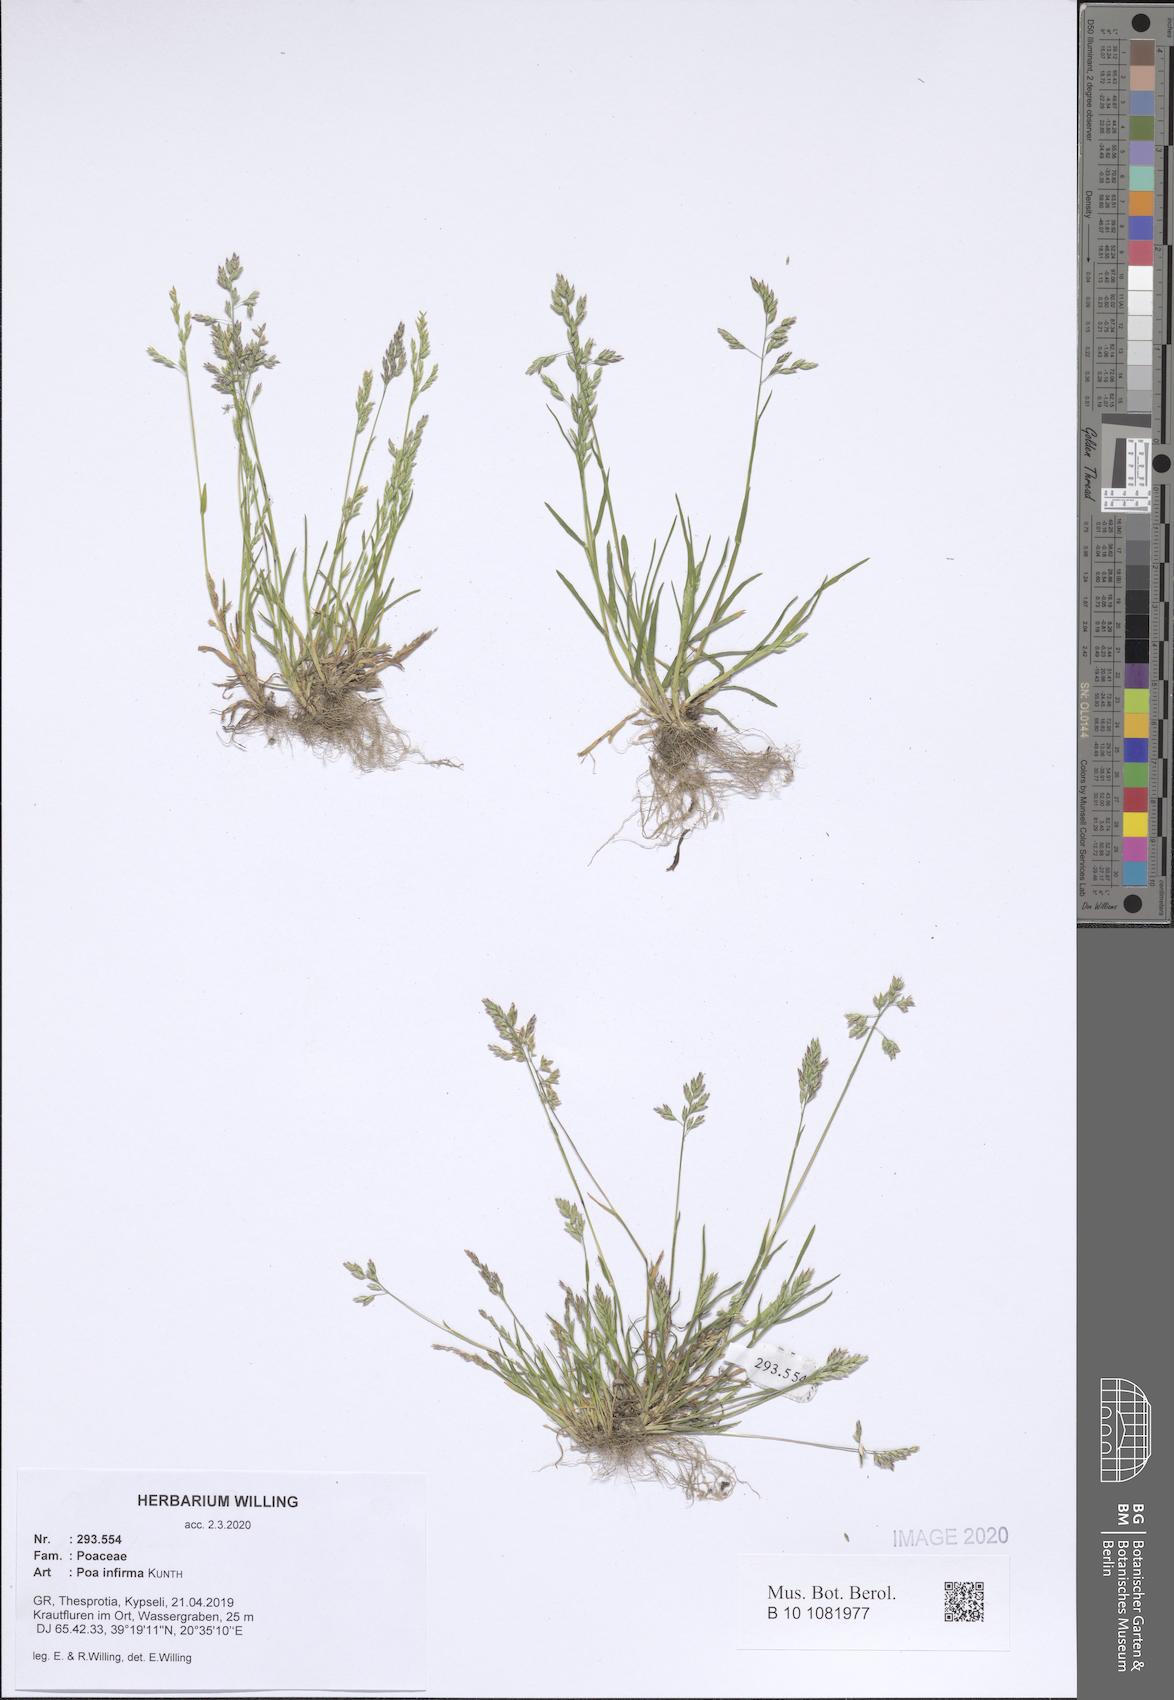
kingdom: Plantae
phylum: Tracheophyta
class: Liliopsida
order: Poales
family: Poaceae
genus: Poa
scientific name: Poa infirma
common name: Weak bluegrass
